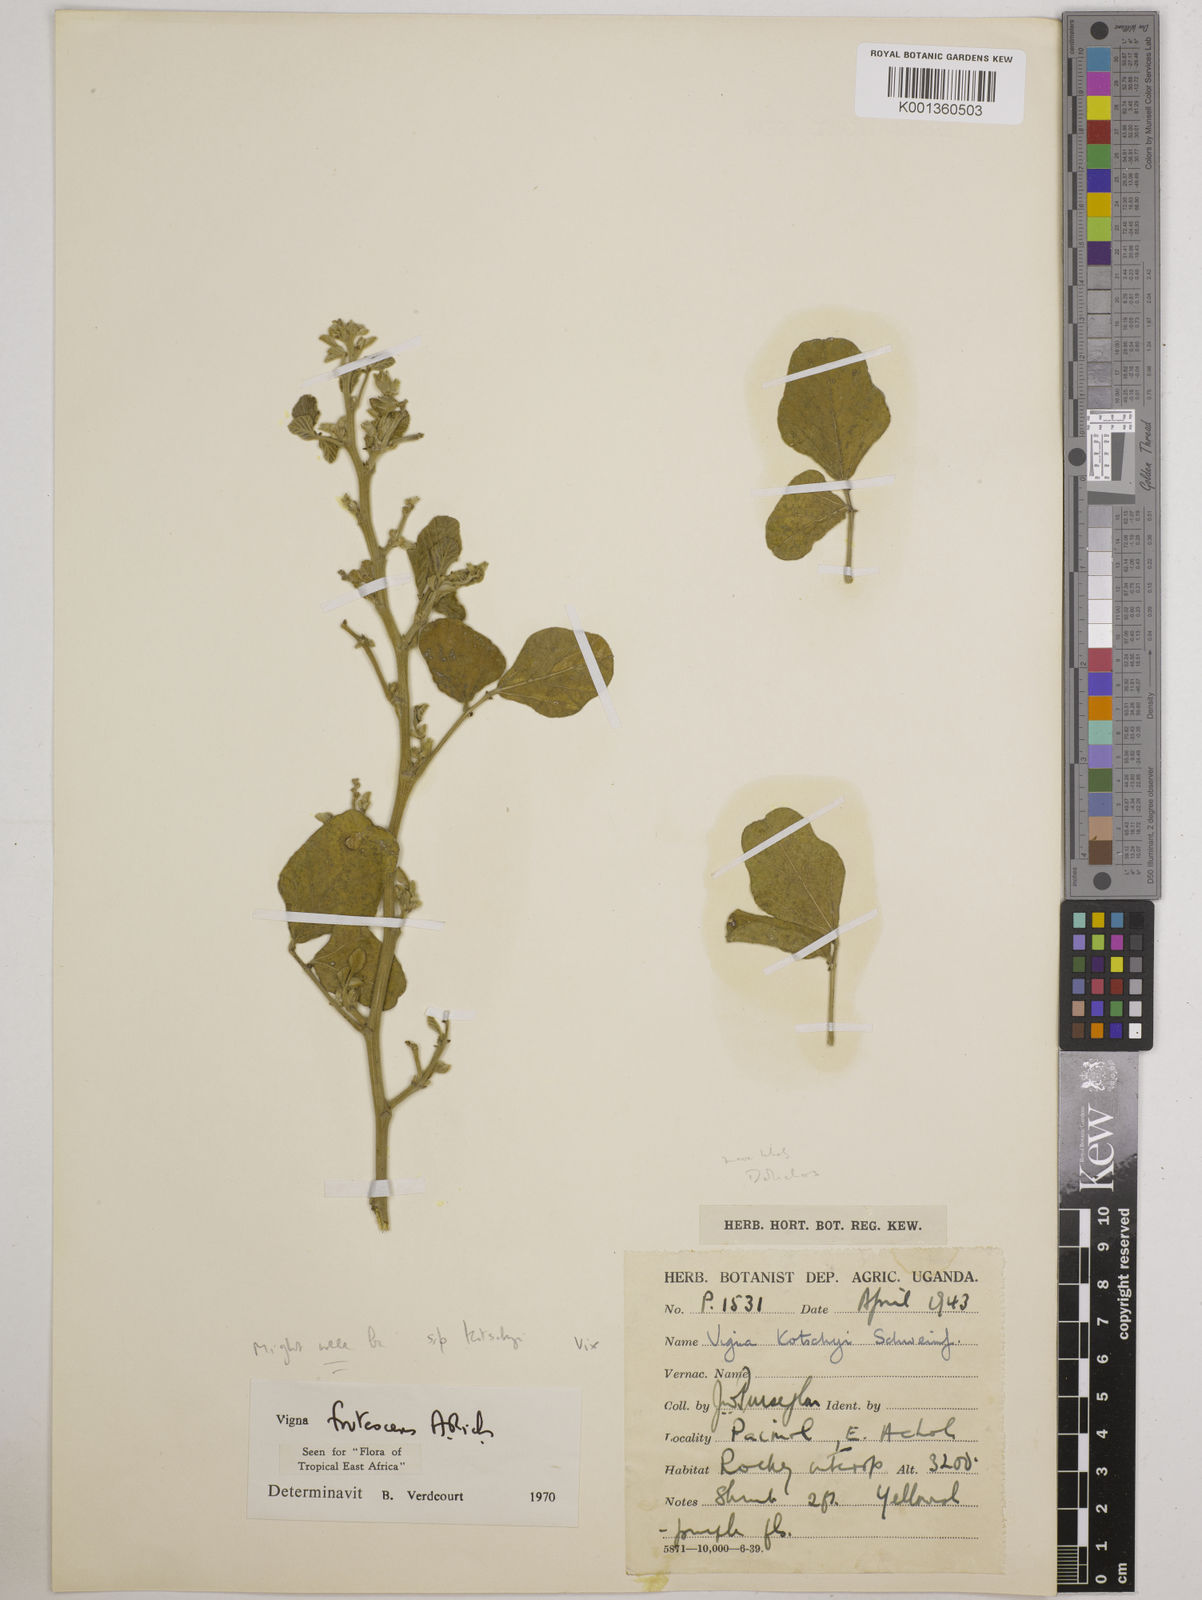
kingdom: Plantae
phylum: Tracheophyta
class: Magnoliopsida
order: Fabales
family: Fabaceae
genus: Vigna
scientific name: Vigna frutescens
